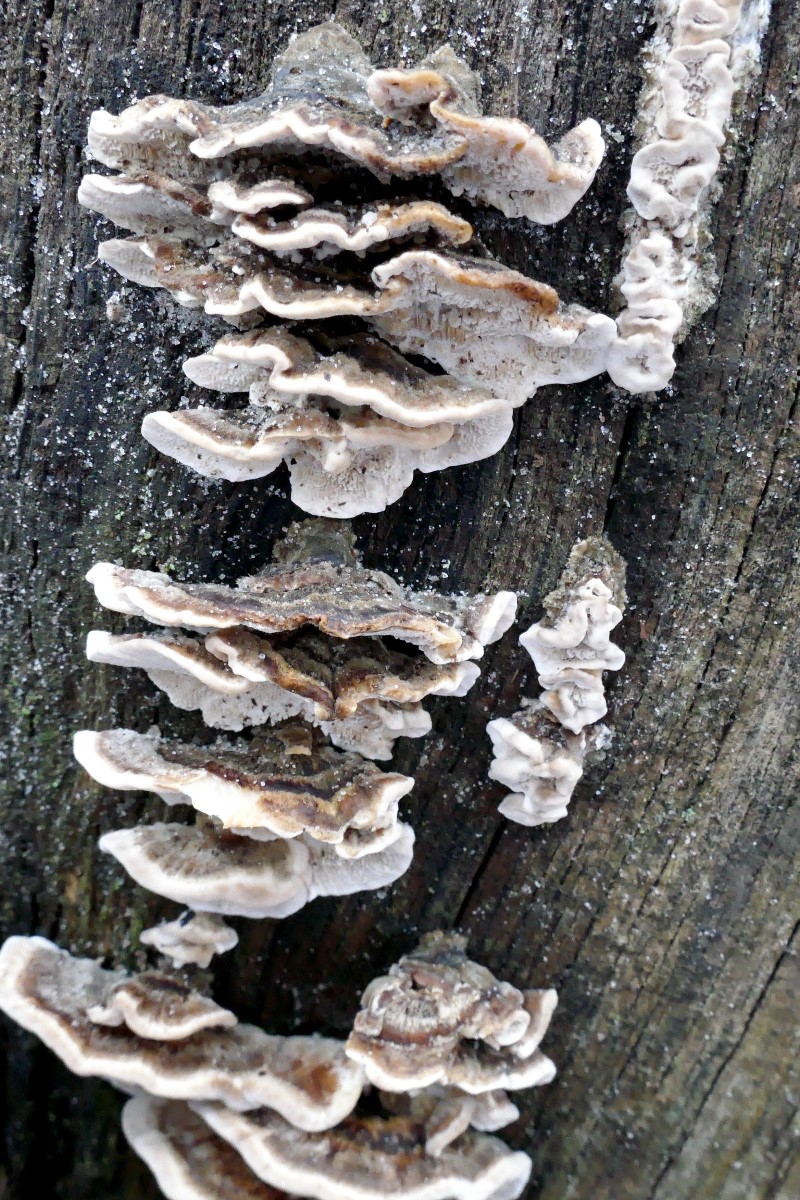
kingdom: Fungi
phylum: Basidiomycota
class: Agaricomycetes
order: Polyporales
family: Polyporaceae
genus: Trametes
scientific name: Trametes versicolor
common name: broget læderporesvamp
